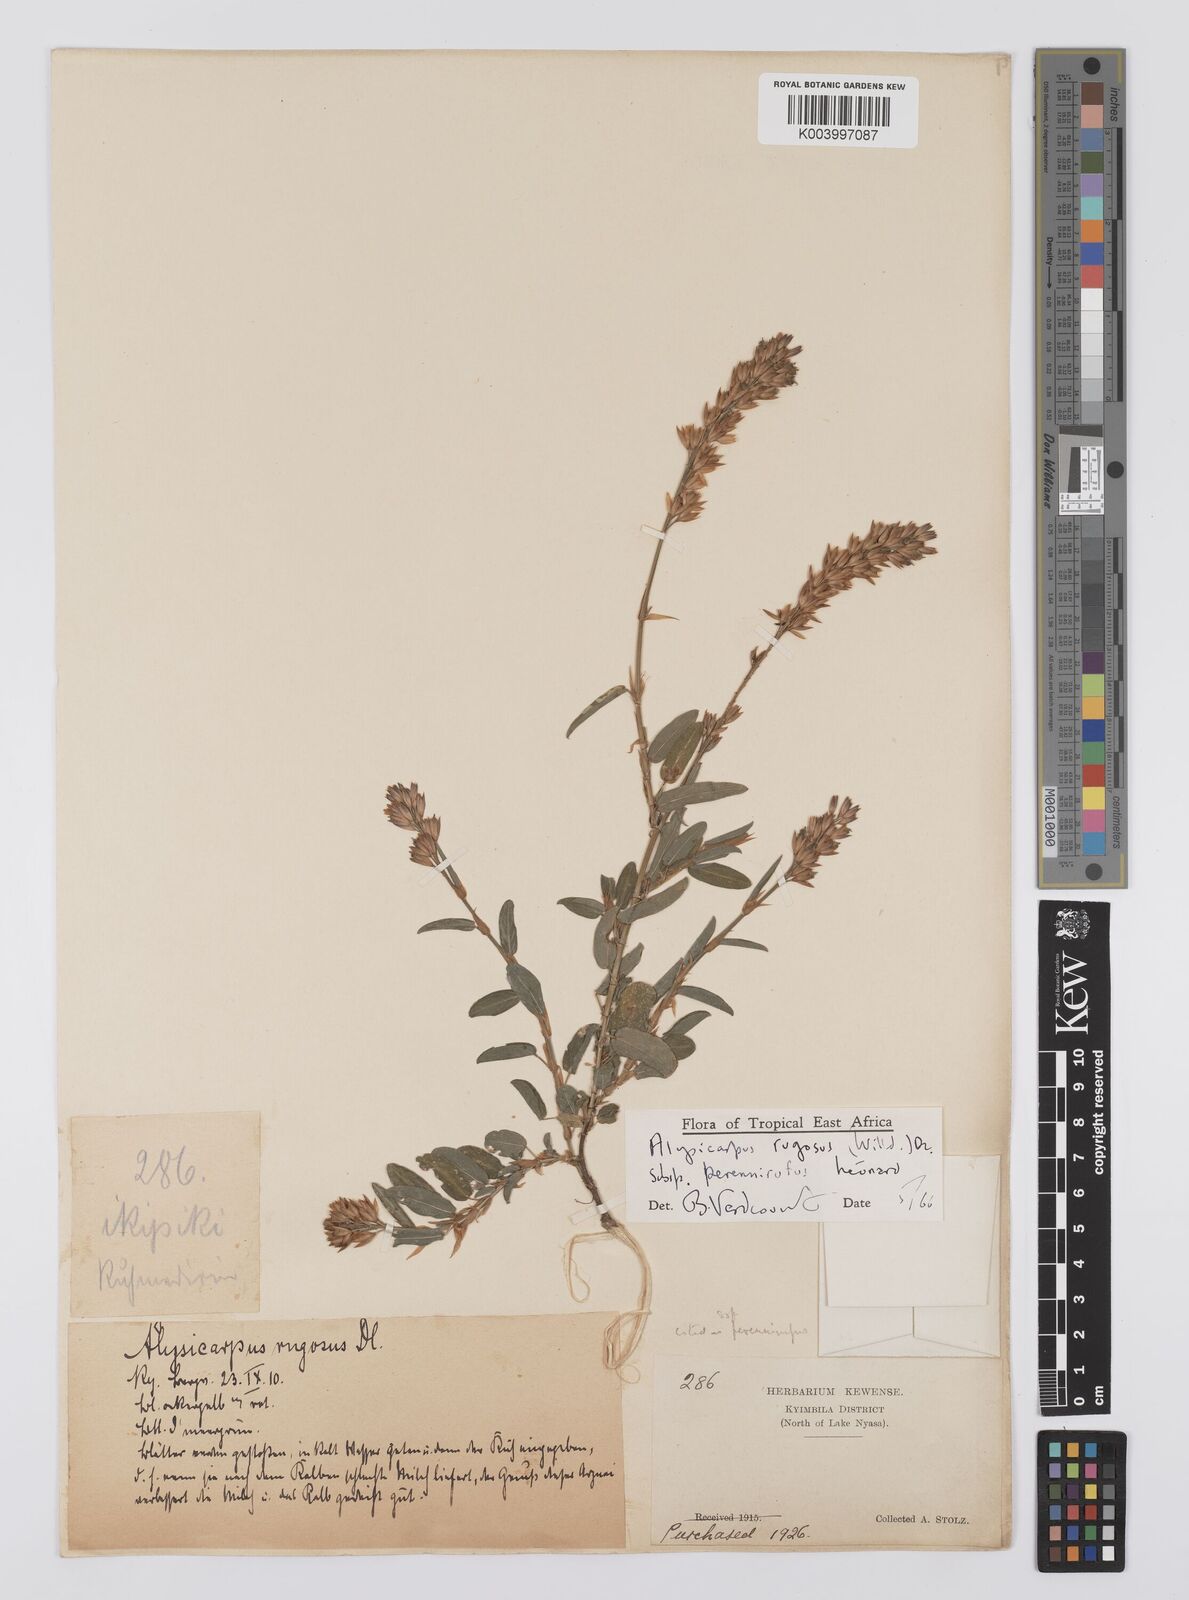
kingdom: Plantae
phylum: Tracheophyta
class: Magnoliopsida
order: Fabales
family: Fabaceae
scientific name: Fabaceae
